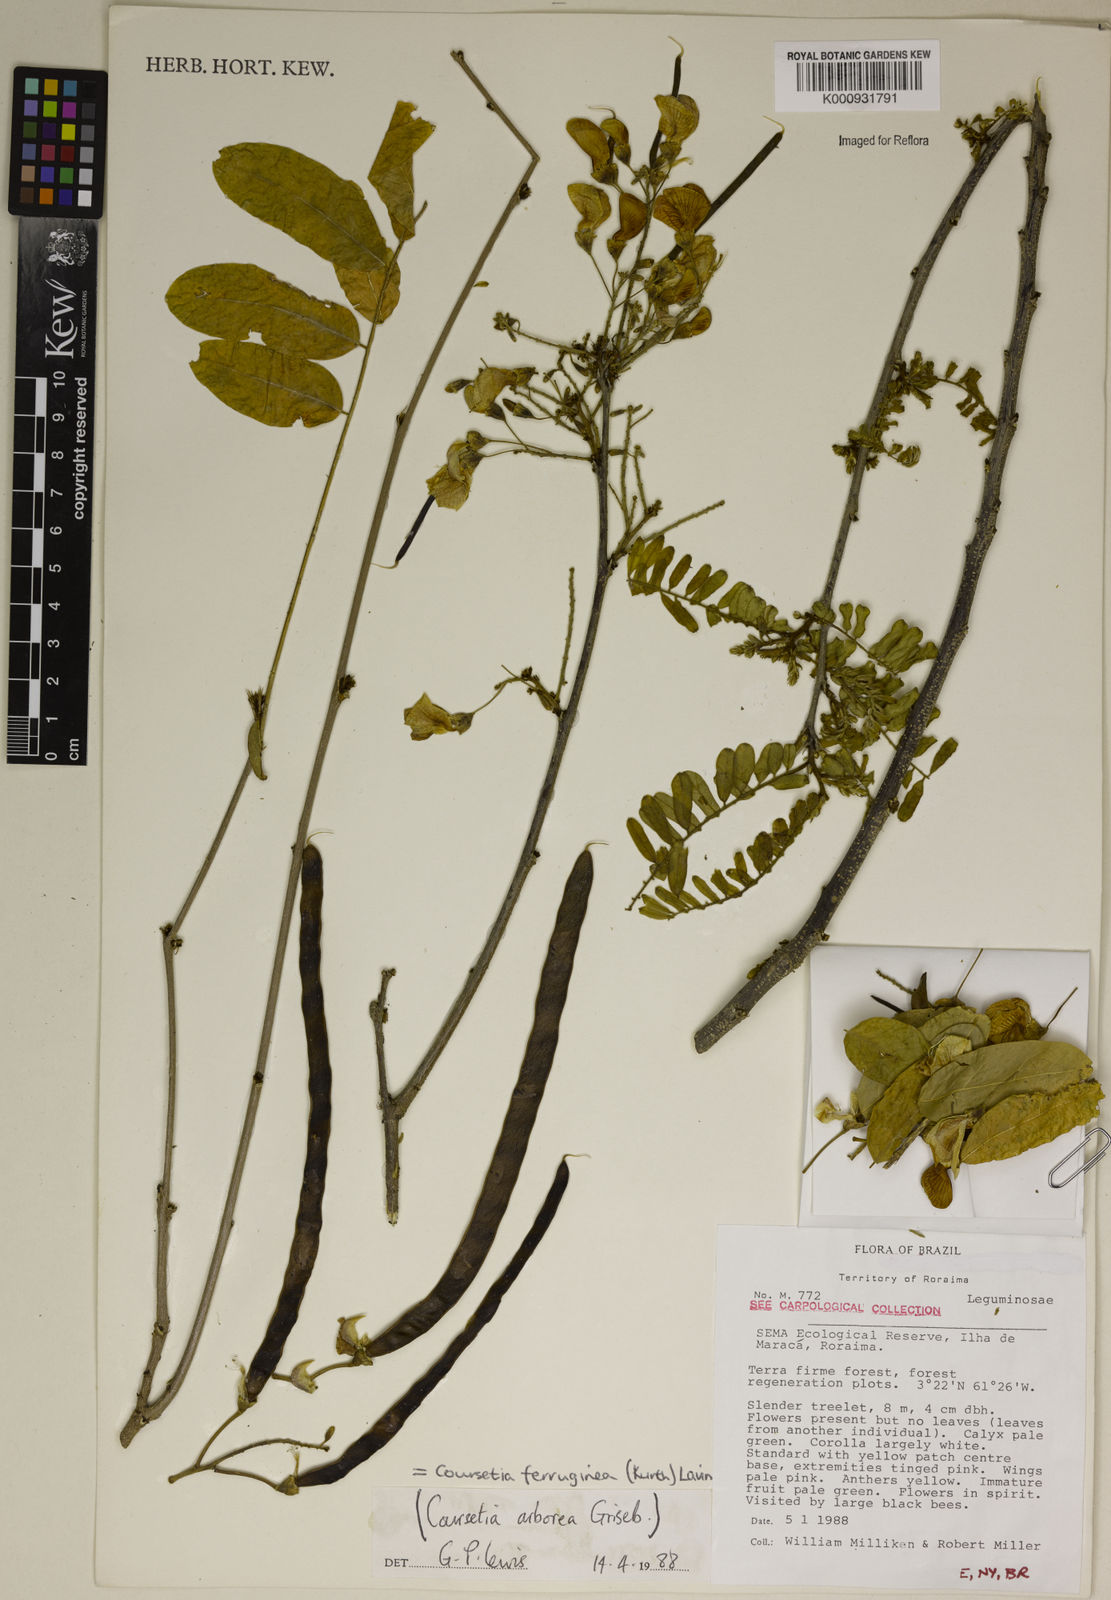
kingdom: Plantae
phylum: Tracheophyta
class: Magnoliopsida
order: Fabales
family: Fabaceae
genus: Coursetia
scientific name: Coursetia ferruginea
